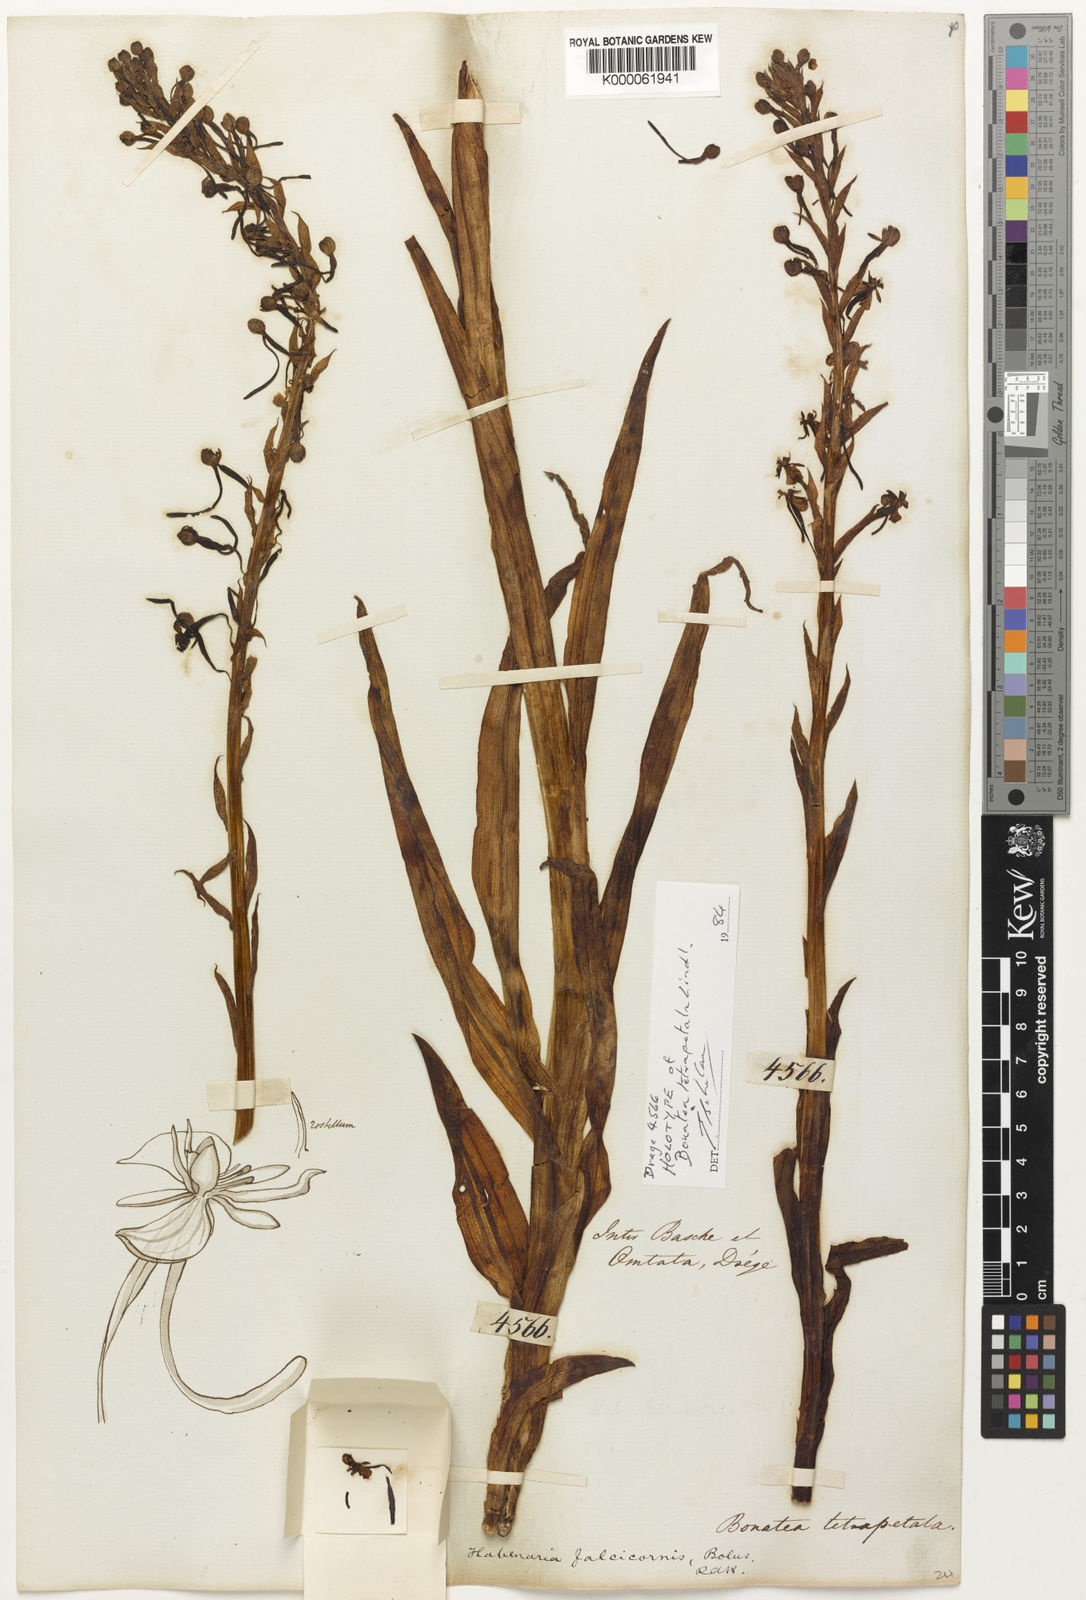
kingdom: Plantae
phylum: Tracheophyta
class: Liliopsida
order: Asparagales
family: Orchidaceae
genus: Habenaria
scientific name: Habenaria
